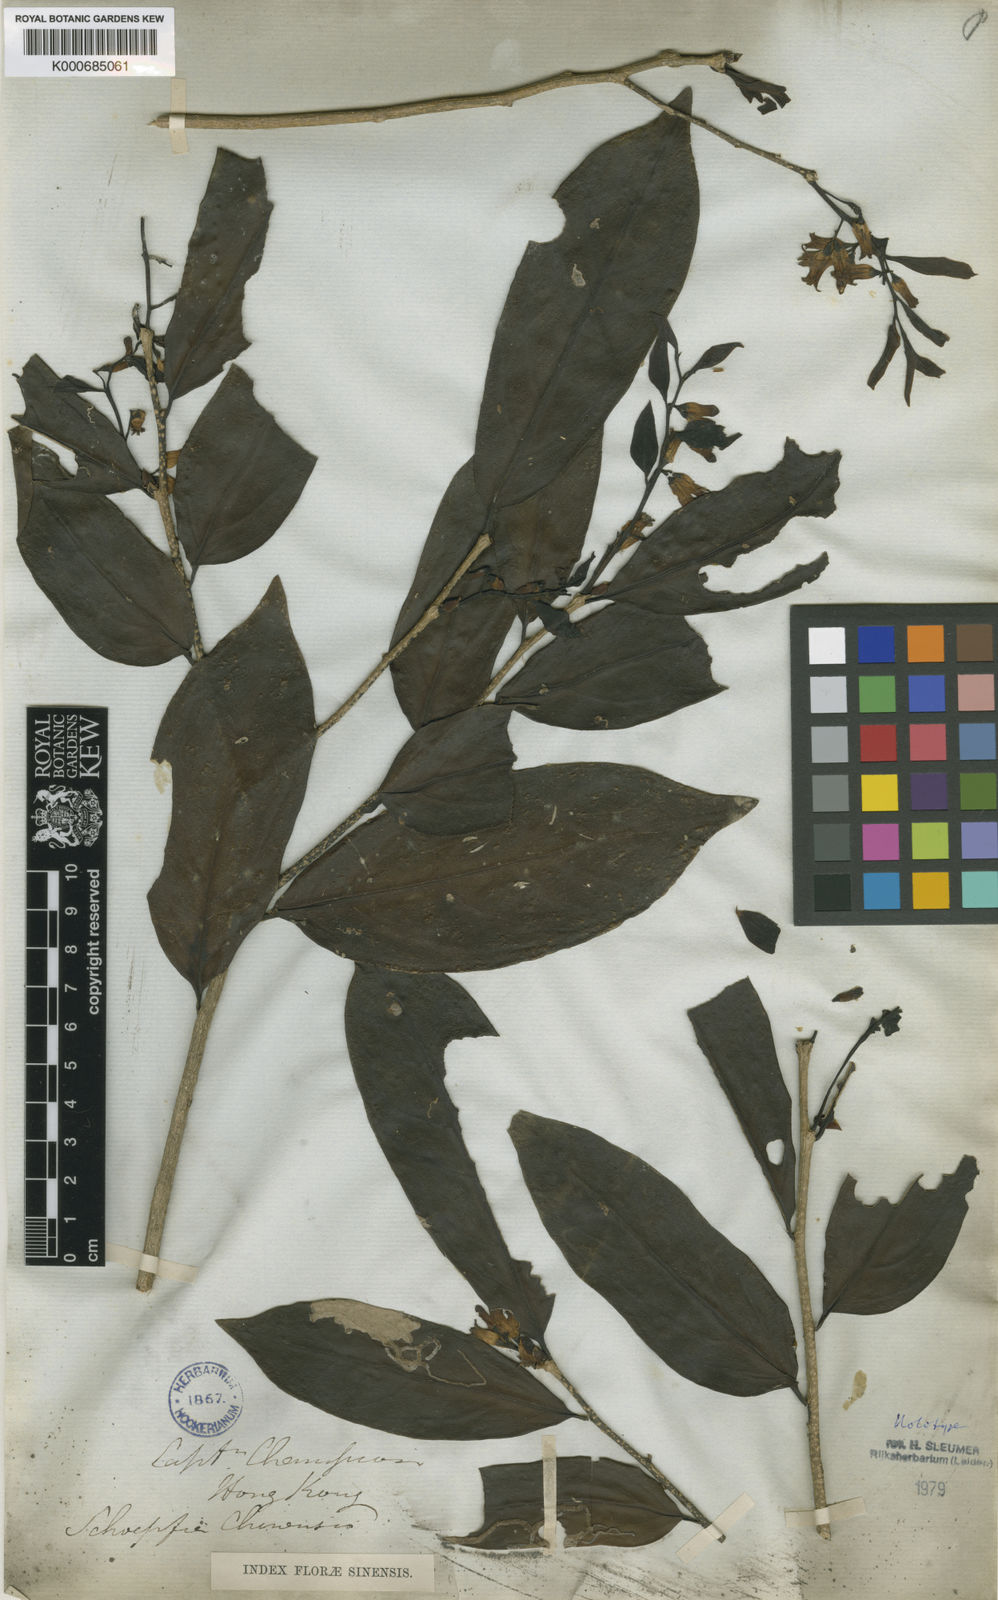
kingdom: Plantae
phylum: Tracheophyta
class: Magnoliopsida
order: Santalales
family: Schoepfiaceae
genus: Schoepfia
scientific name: Schoepfia chinensis
